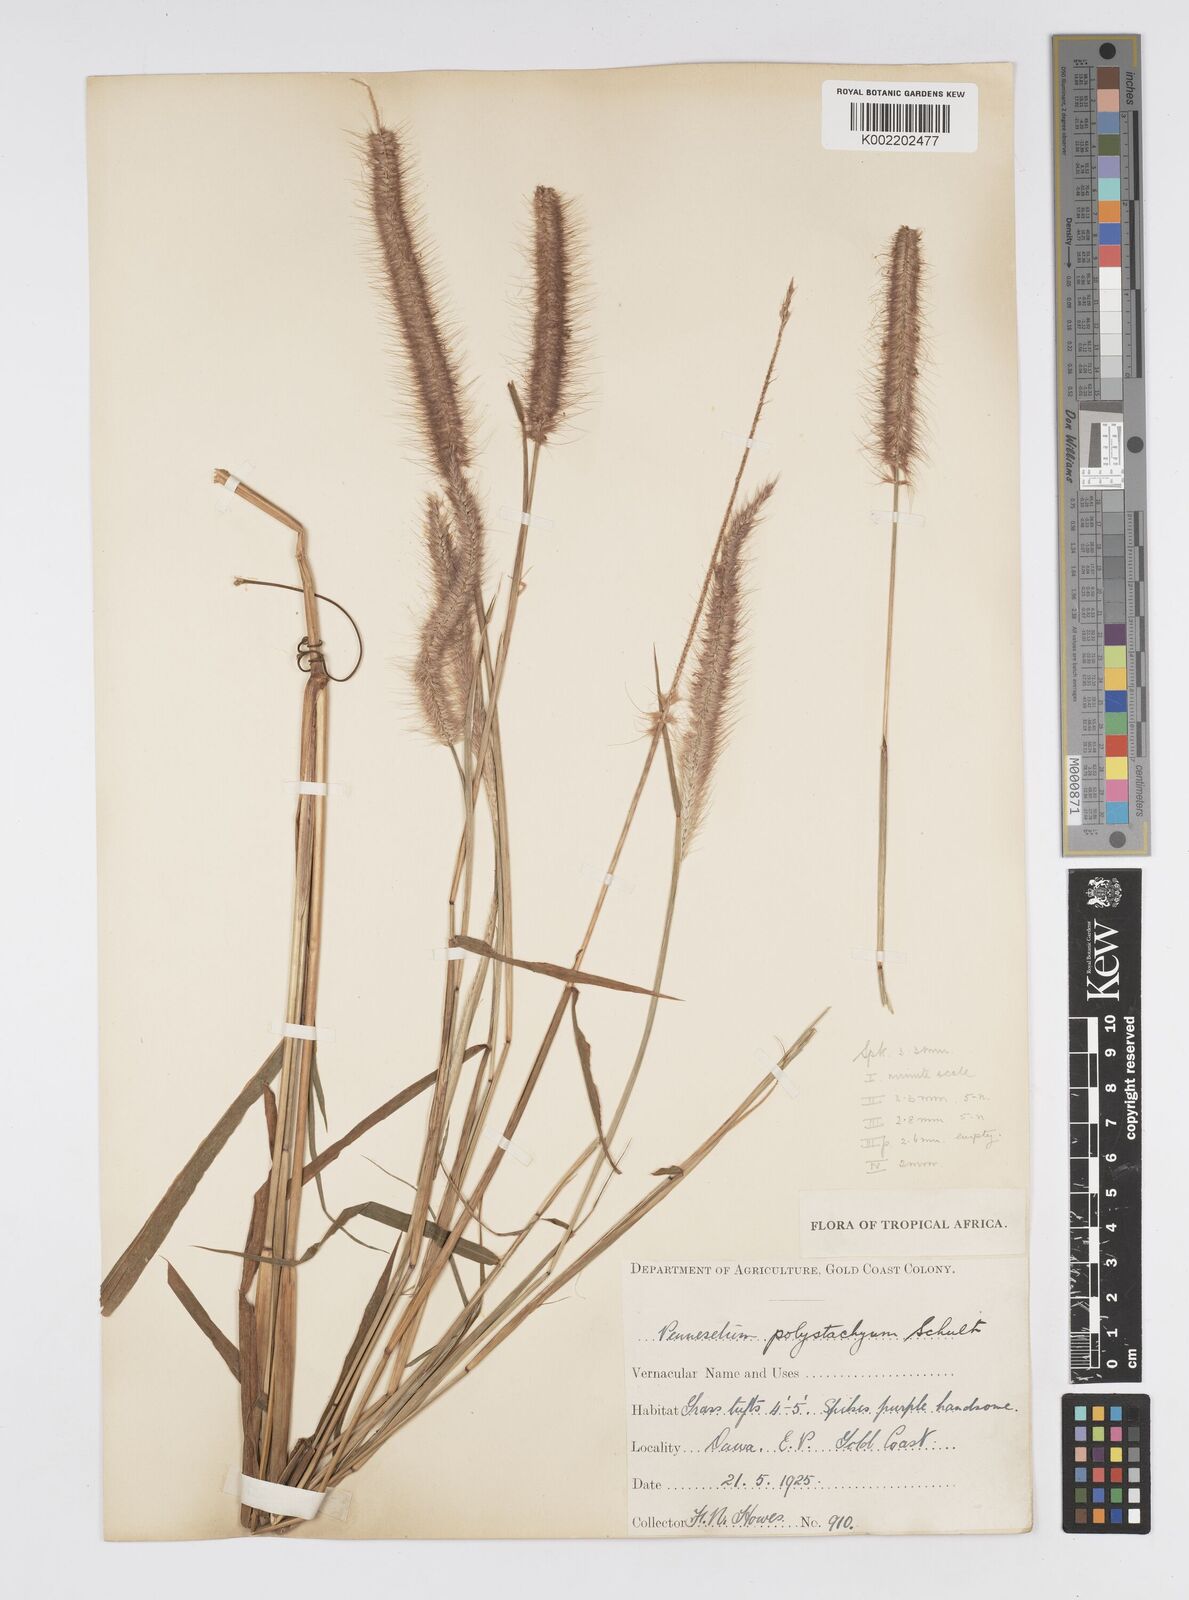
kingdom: Plantae
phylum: Tracheophyta
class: Liliopsida
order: Poales
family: Poaceae
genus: Setaria
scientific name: Setaria parviflora
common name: Knotroot bristle-grass
